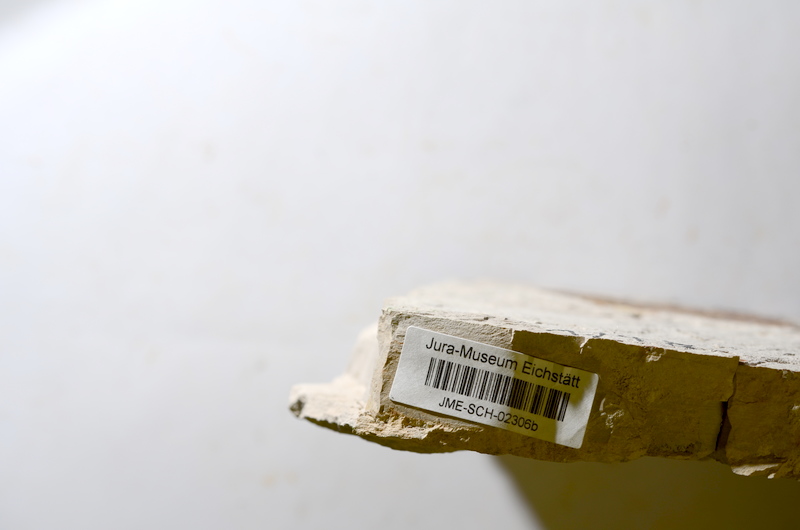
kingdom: Animalia
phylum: Chordata
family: Aspidorhynchidae
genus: Aspidorhynchus
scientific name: Aspidorhynchus
